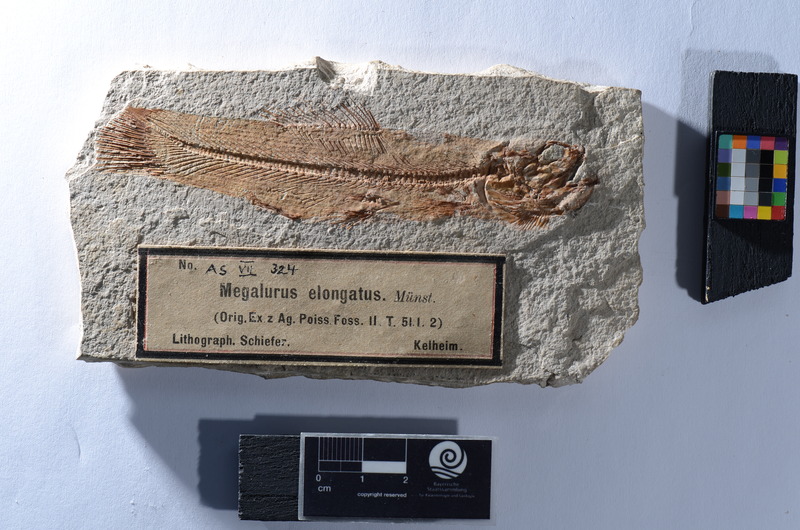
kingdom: Animalia
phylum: Chordata
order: Amiiformes
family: Amiidae
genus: Solnhofenamia
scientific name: Solnhofenamia elongata
